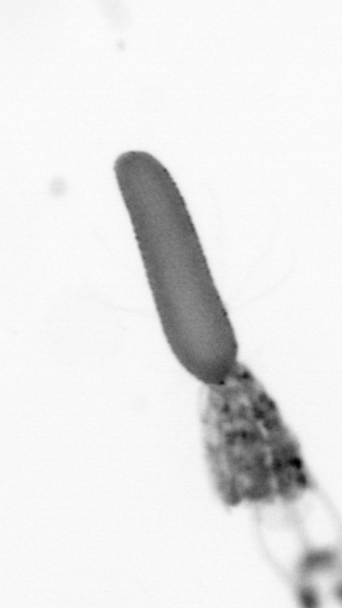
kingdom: Animalia
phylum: Arthropoda
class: Copepoda
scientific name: Copepoda
